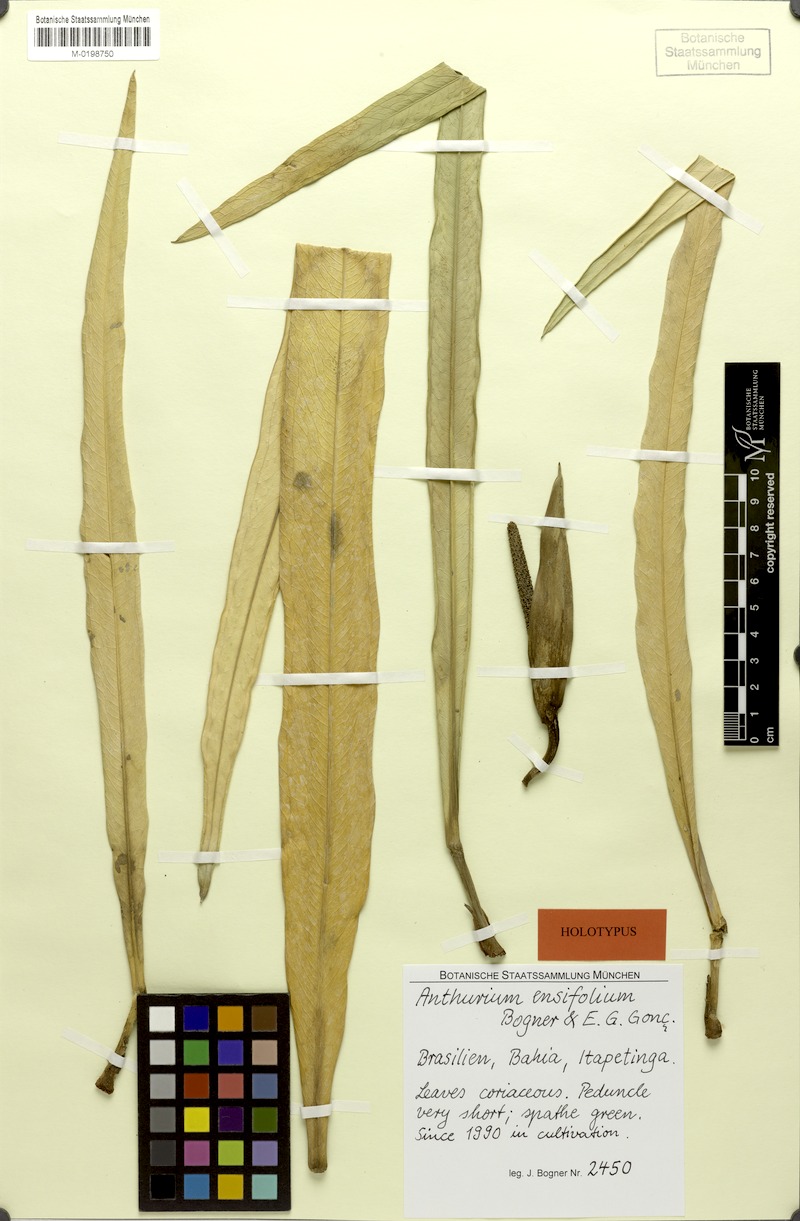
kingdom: Plantae
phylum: Tracheophyta
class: Liliopsida
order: Alismatales
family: Araceae
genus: Anthurium
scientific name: Anthurium ensifolium
